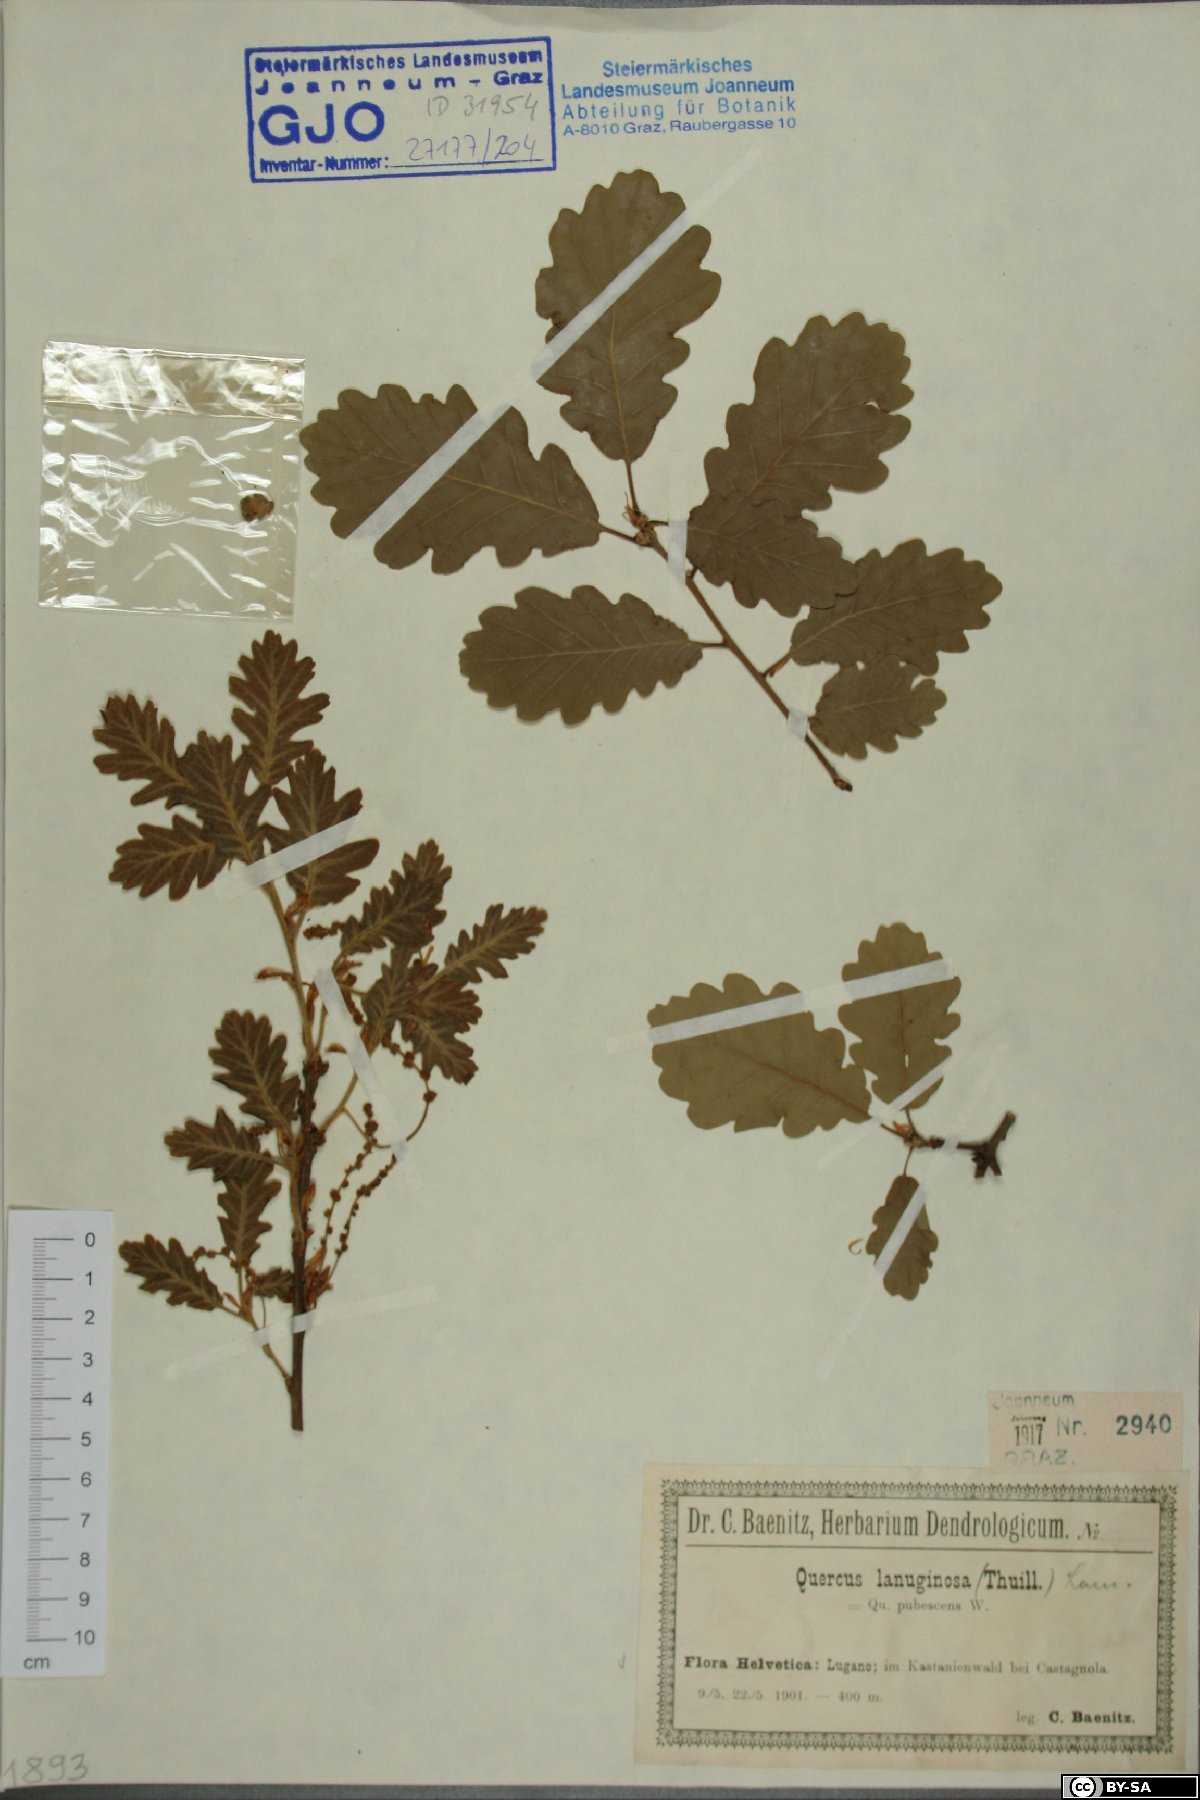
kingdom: Plantae
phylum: Tracheophyta
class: Magnoliopsida
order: Fagales
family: Fagaceae
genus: Quercus
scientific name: Quercus pubescens
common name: Downy oak
